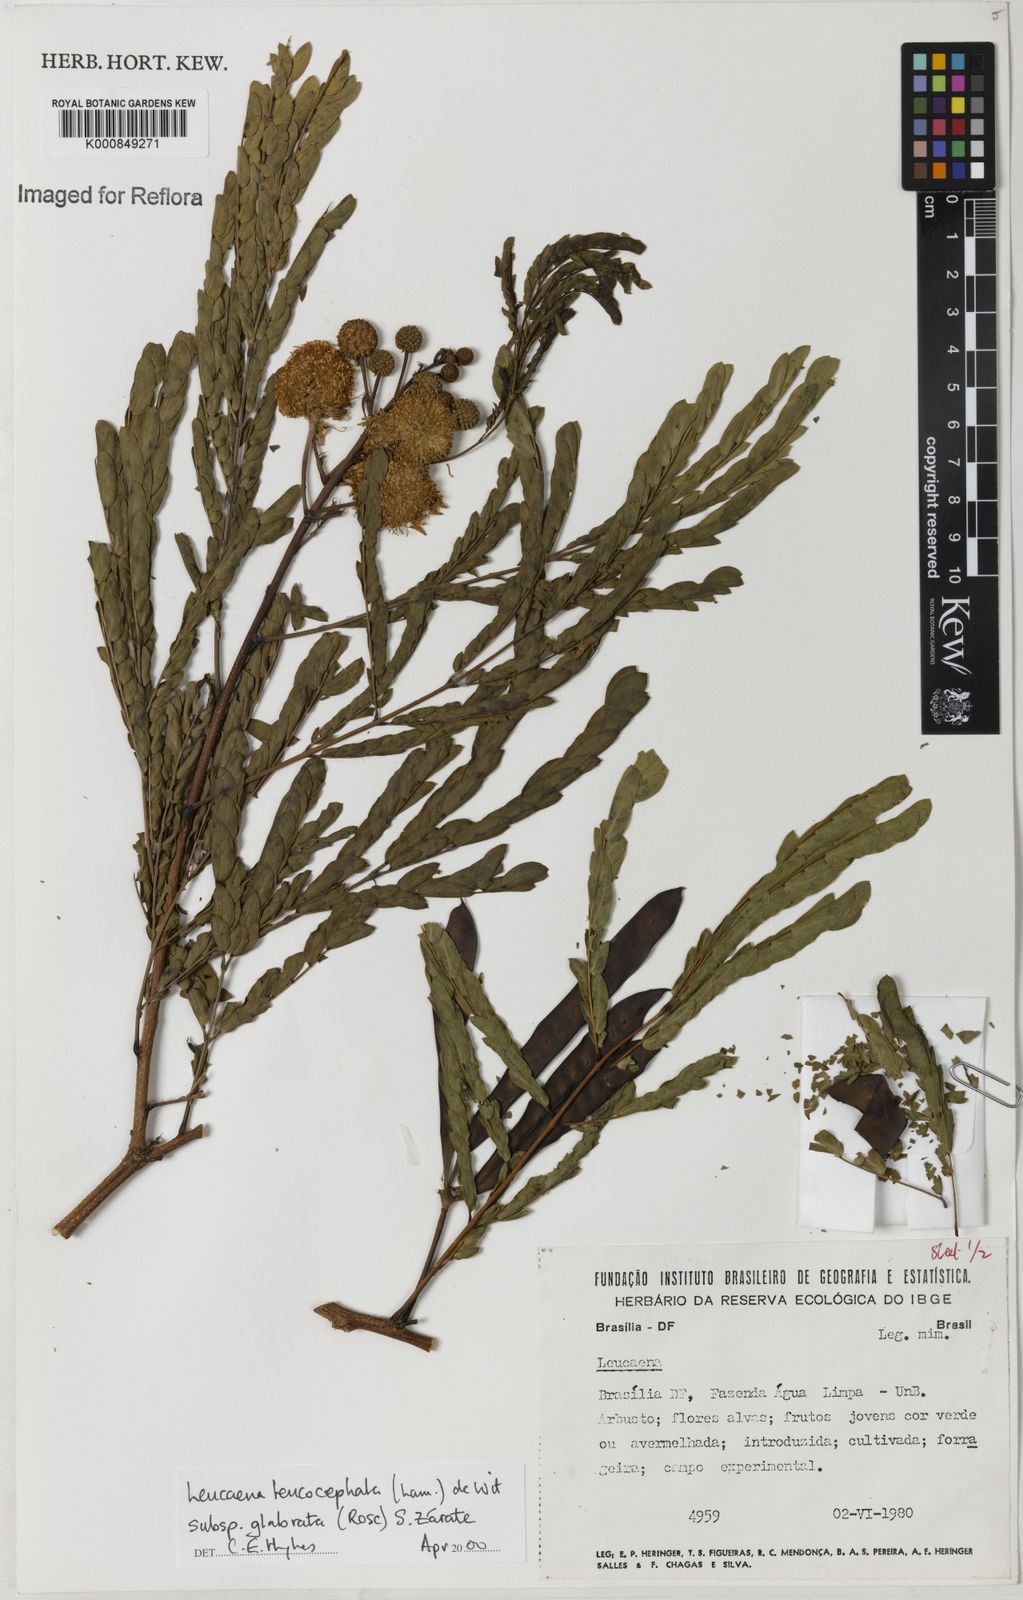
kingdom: Plantae
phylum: Tracheophyta
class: Magnoliopsida
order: Fabales
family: Fabaceae
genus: Leucaena
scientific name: Leucaena leucocephala
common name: White leadtree
